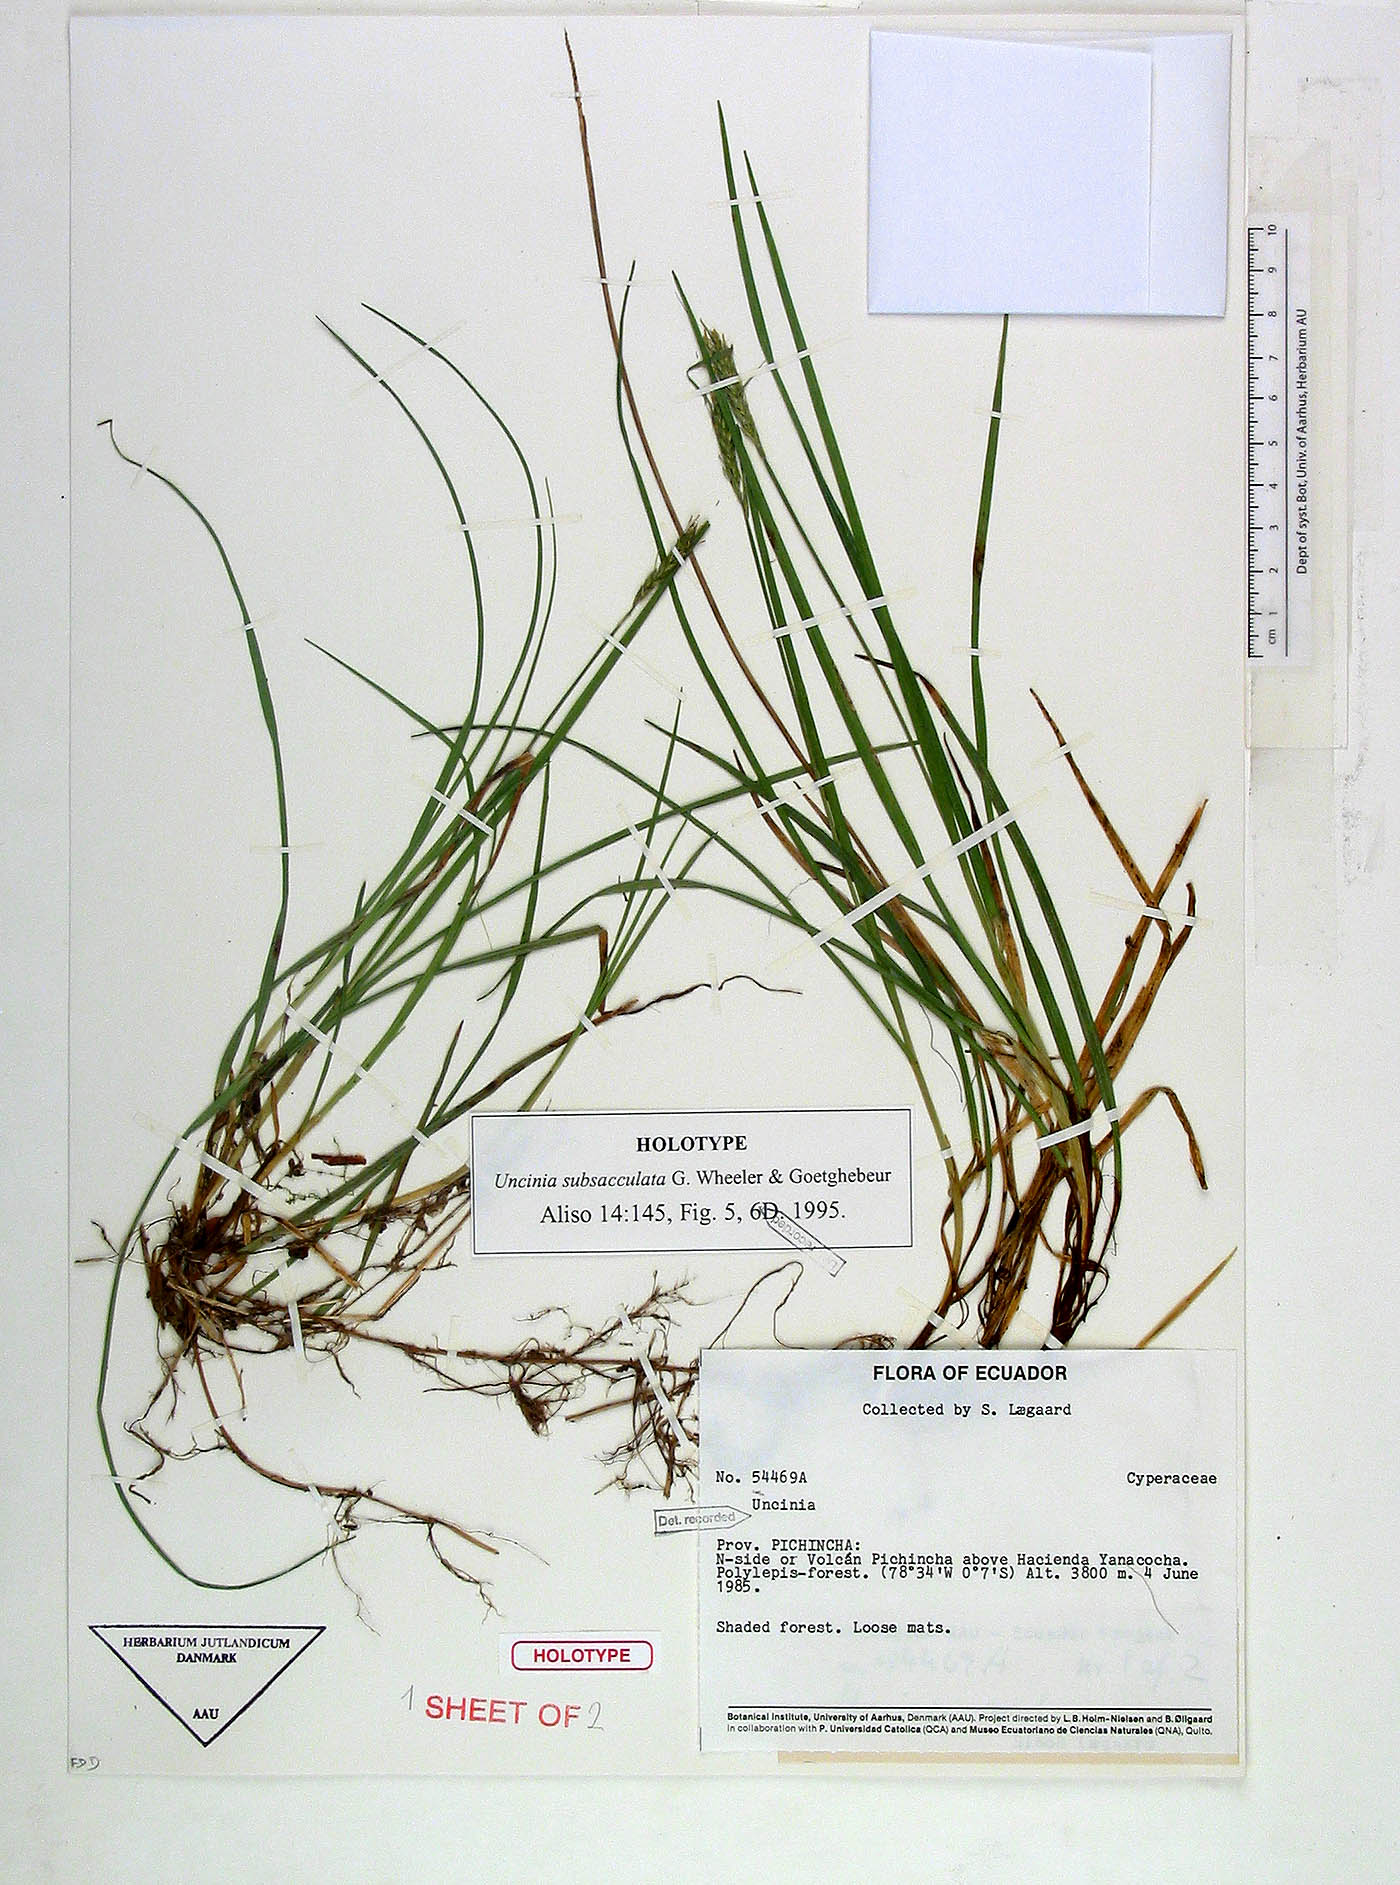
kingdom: Plantae
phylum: Tracheophyta
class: Liliopsida
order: Poales
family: Cyperaceae
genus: Carex
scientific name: Carex subsacculata
